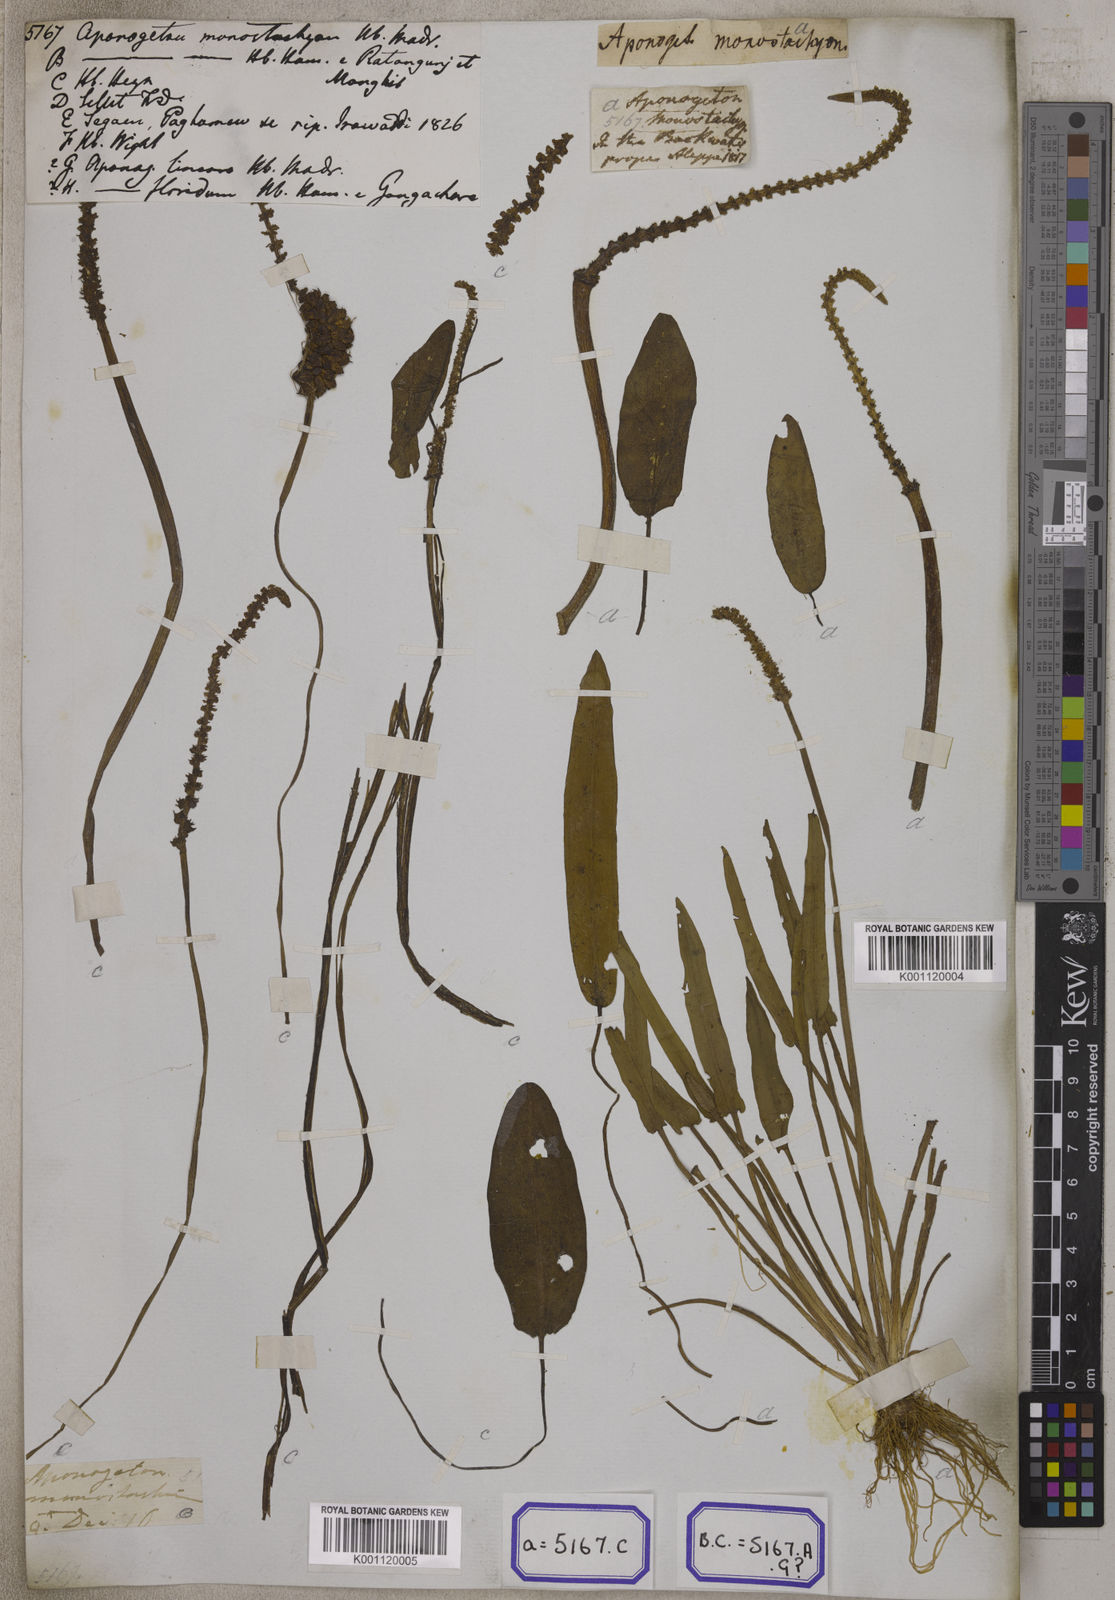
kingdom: Plantae
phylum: Tracheophyta
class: Liliopsida
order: Alismatales
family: Aponogetonaceae
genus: Aponogeton
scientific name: Aponogeton
